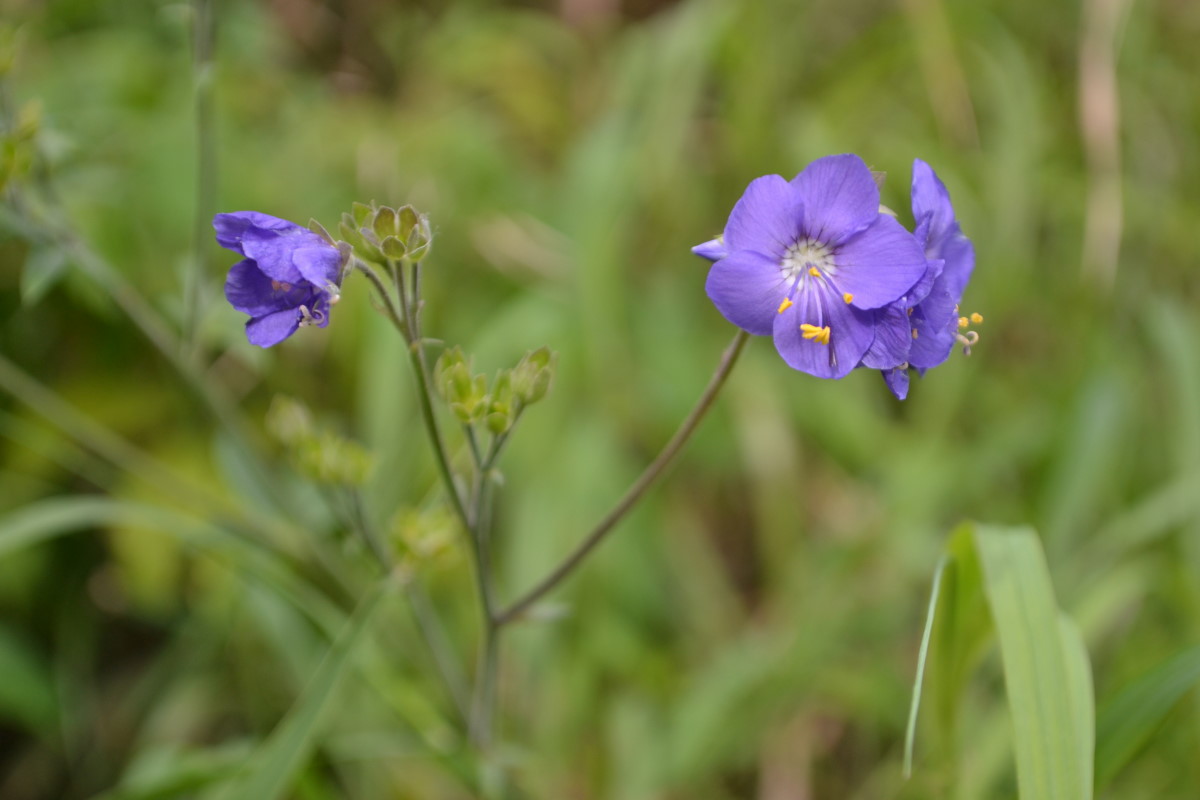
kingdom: Plantae
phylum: Tracheophyta
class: Magnoliopsida
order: Ericales
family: Polemoniaceae
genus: Polemonium
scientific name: Polemonium caeruleum
